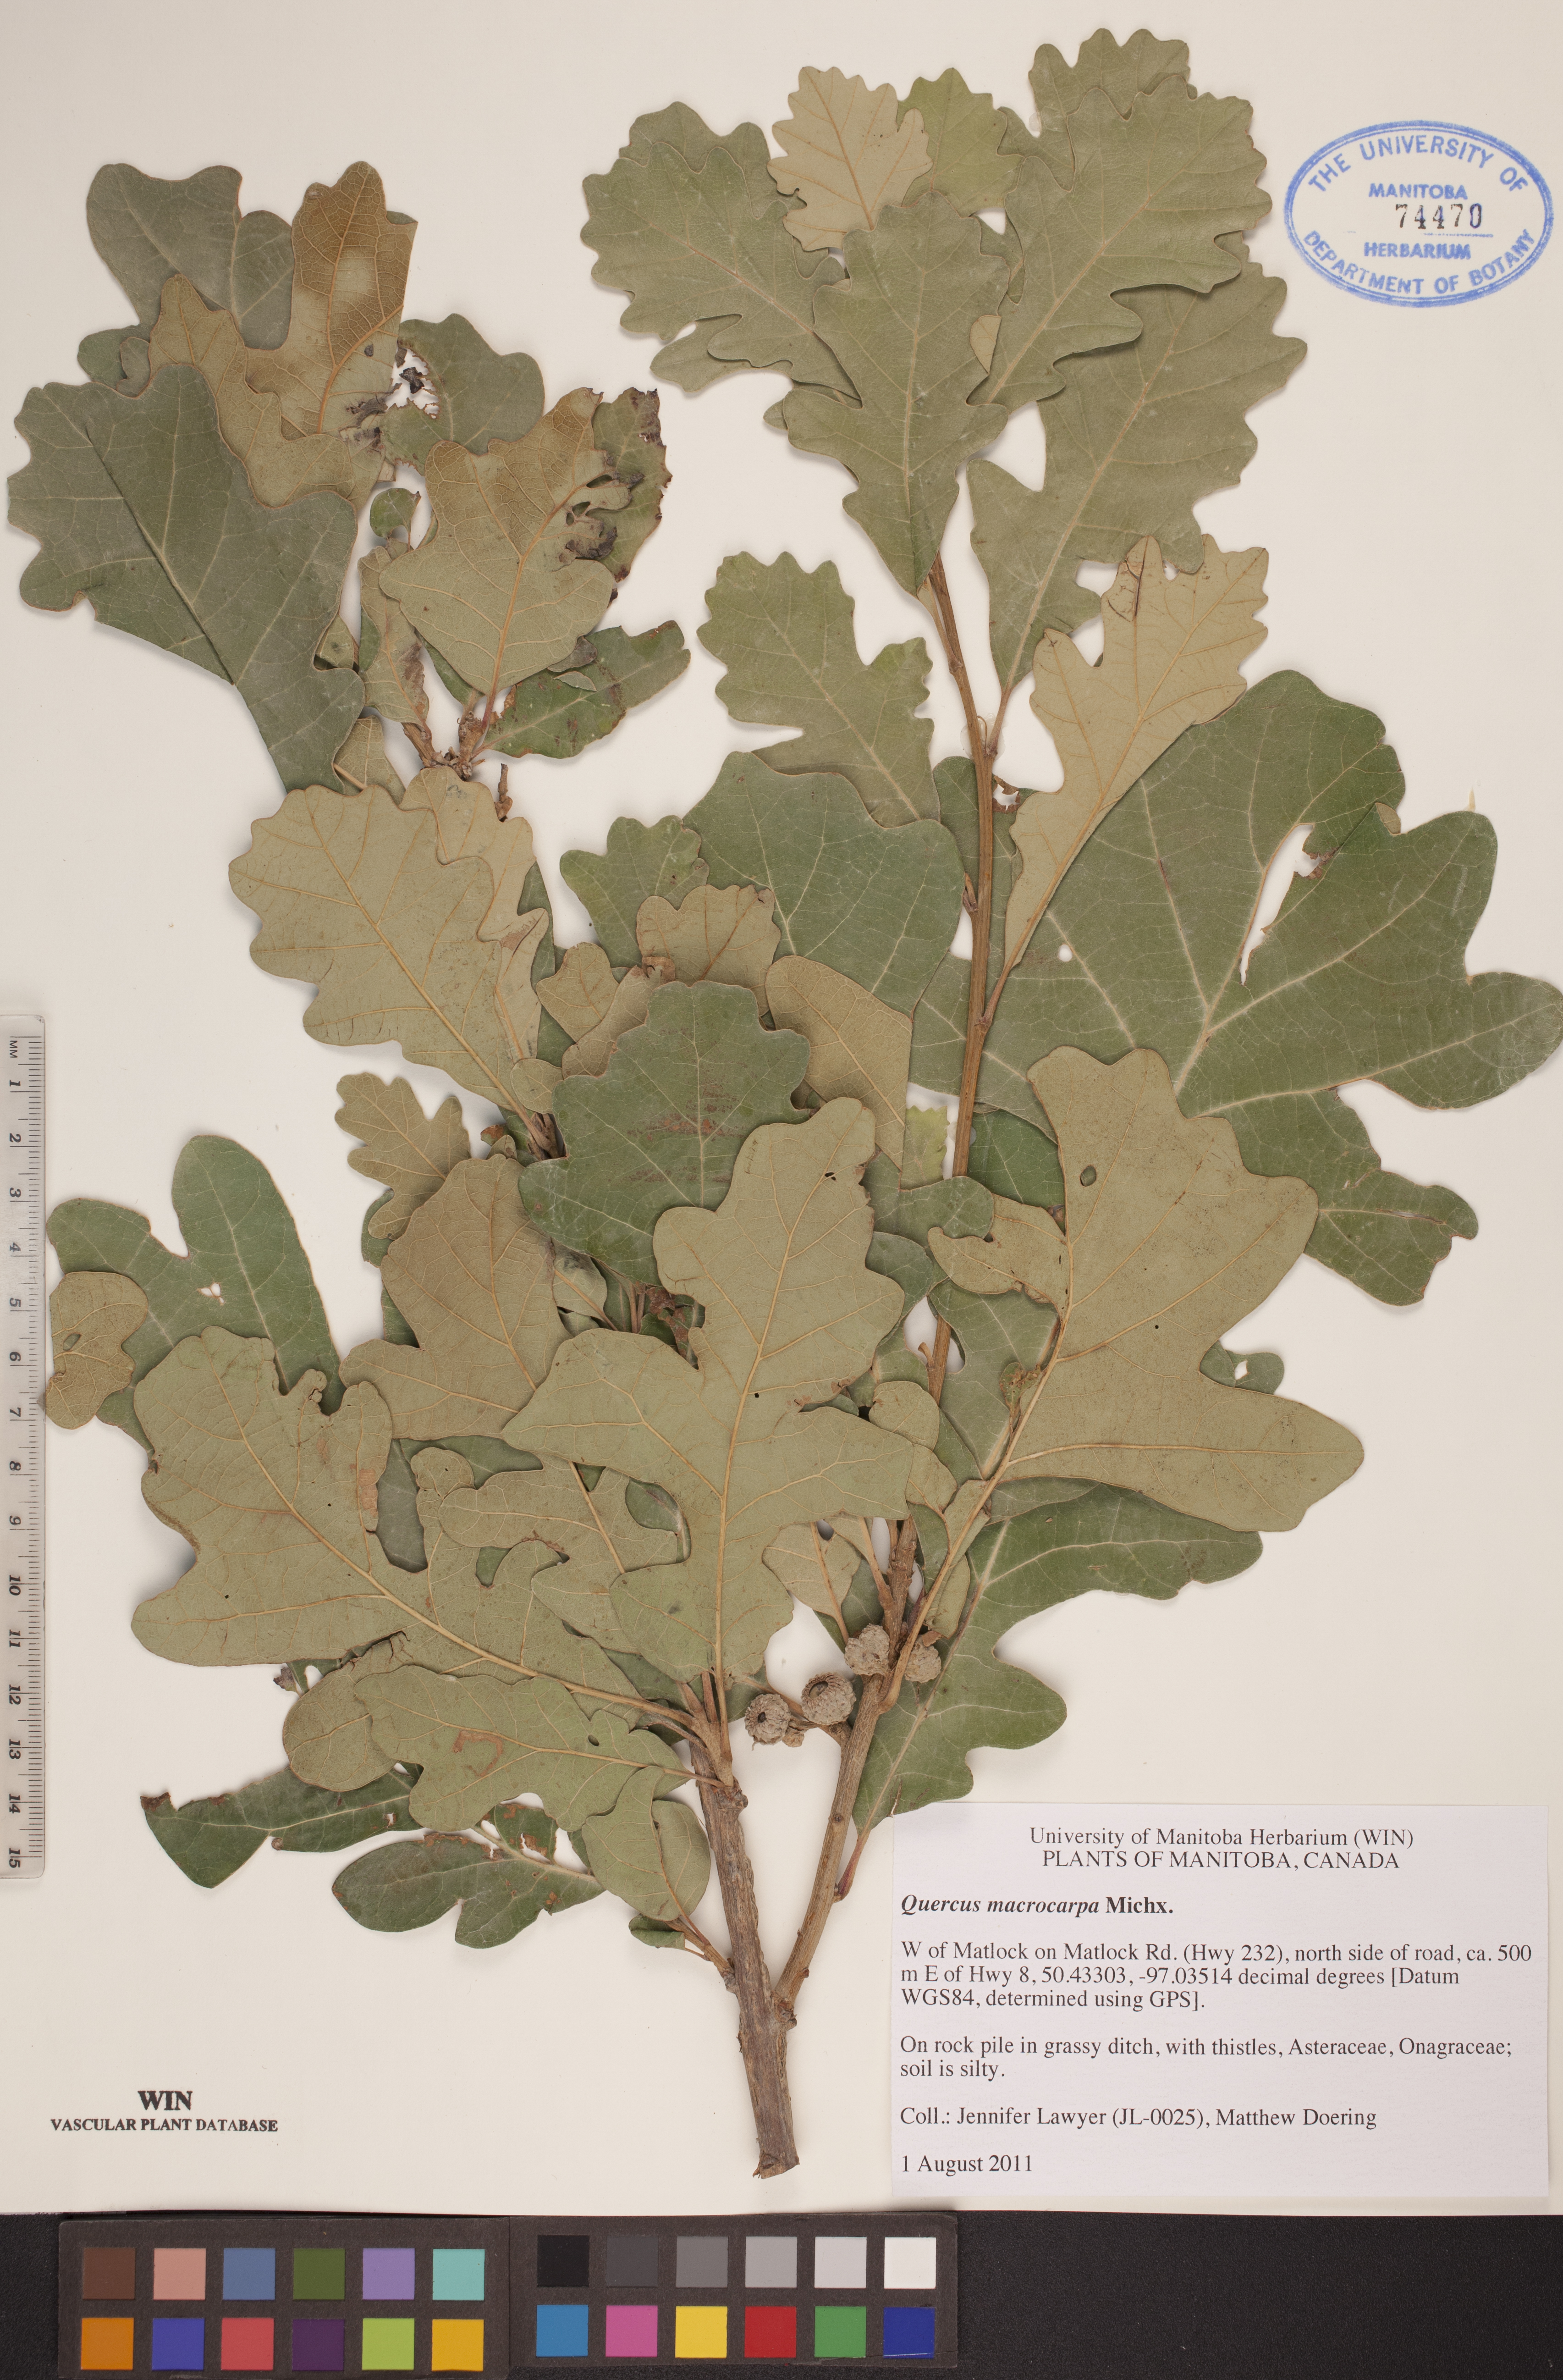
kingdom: Plantae
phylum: Tracheophyta
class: Magnoliopsida
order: Fagales
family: Fagaceae
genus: Quercus
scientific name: Quercus macrocarpa
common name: Bur oak
